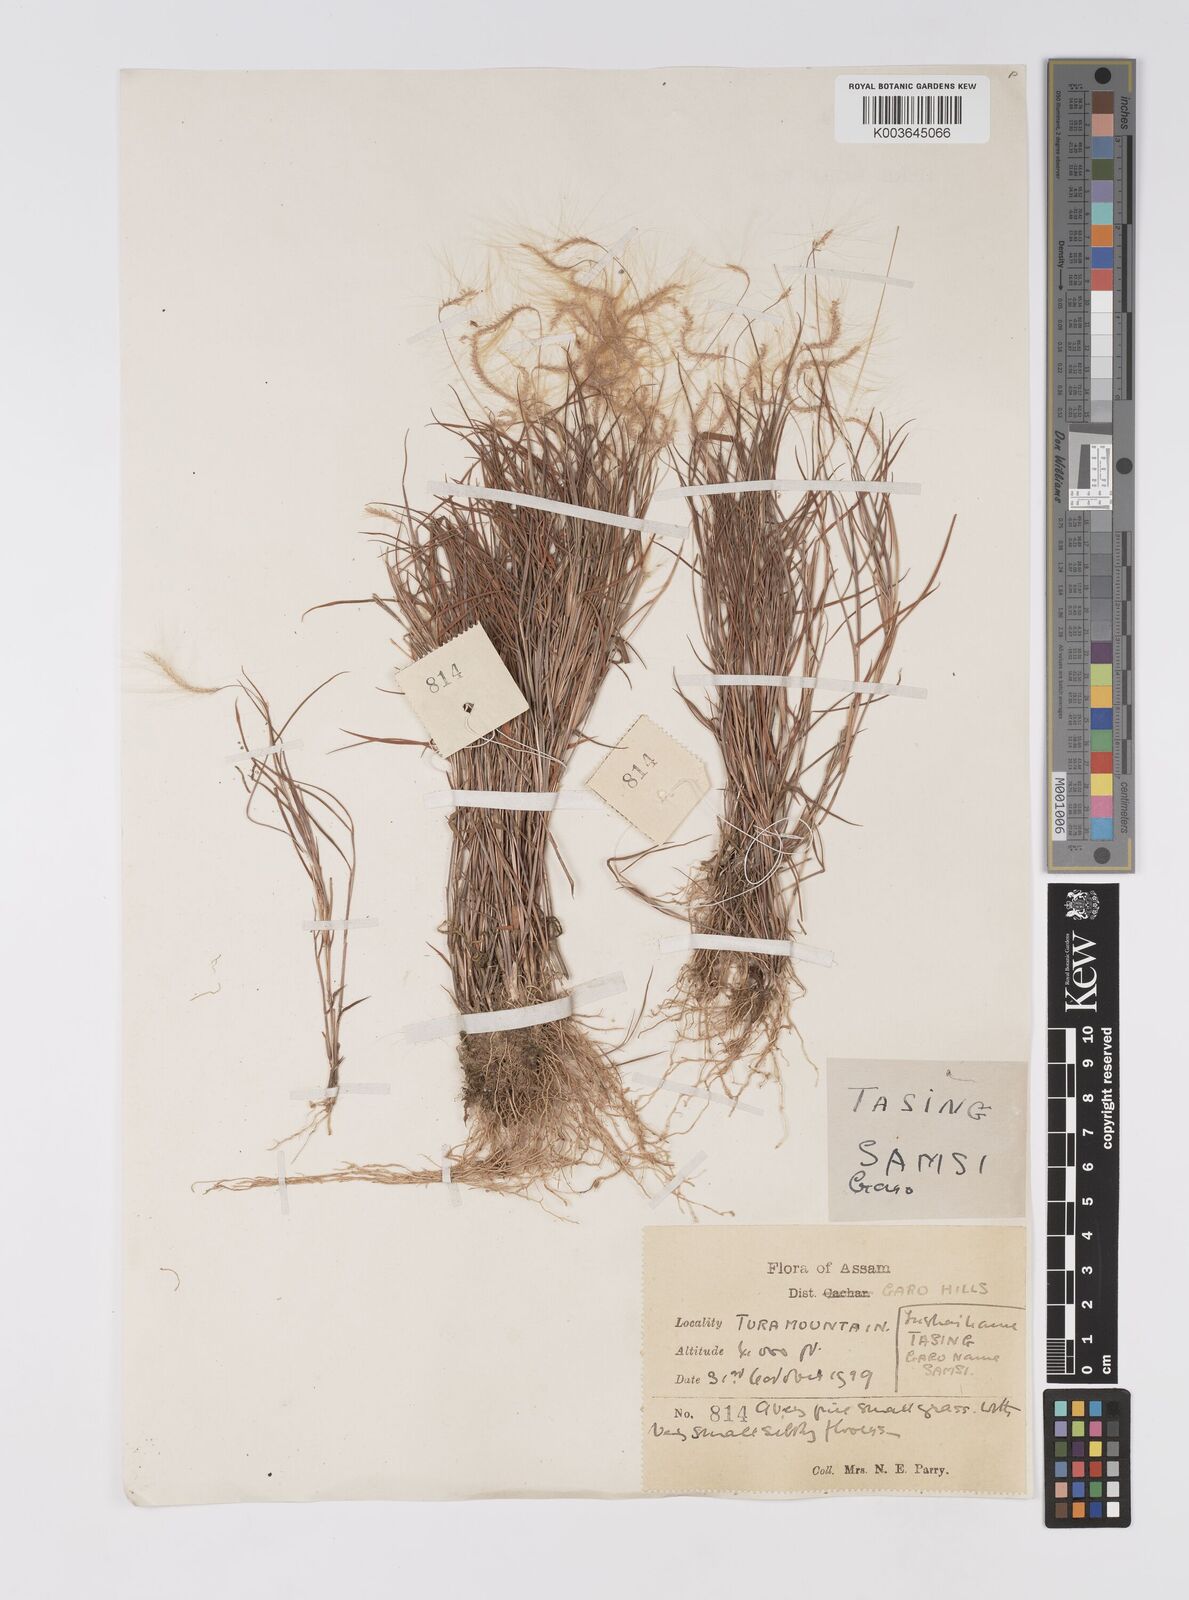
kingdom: Plantae
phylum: Tracheophyta
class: Liliopsida
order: Poales
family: Poaceae
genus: Pogonatherum
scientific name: Pogonatherum crinitum
